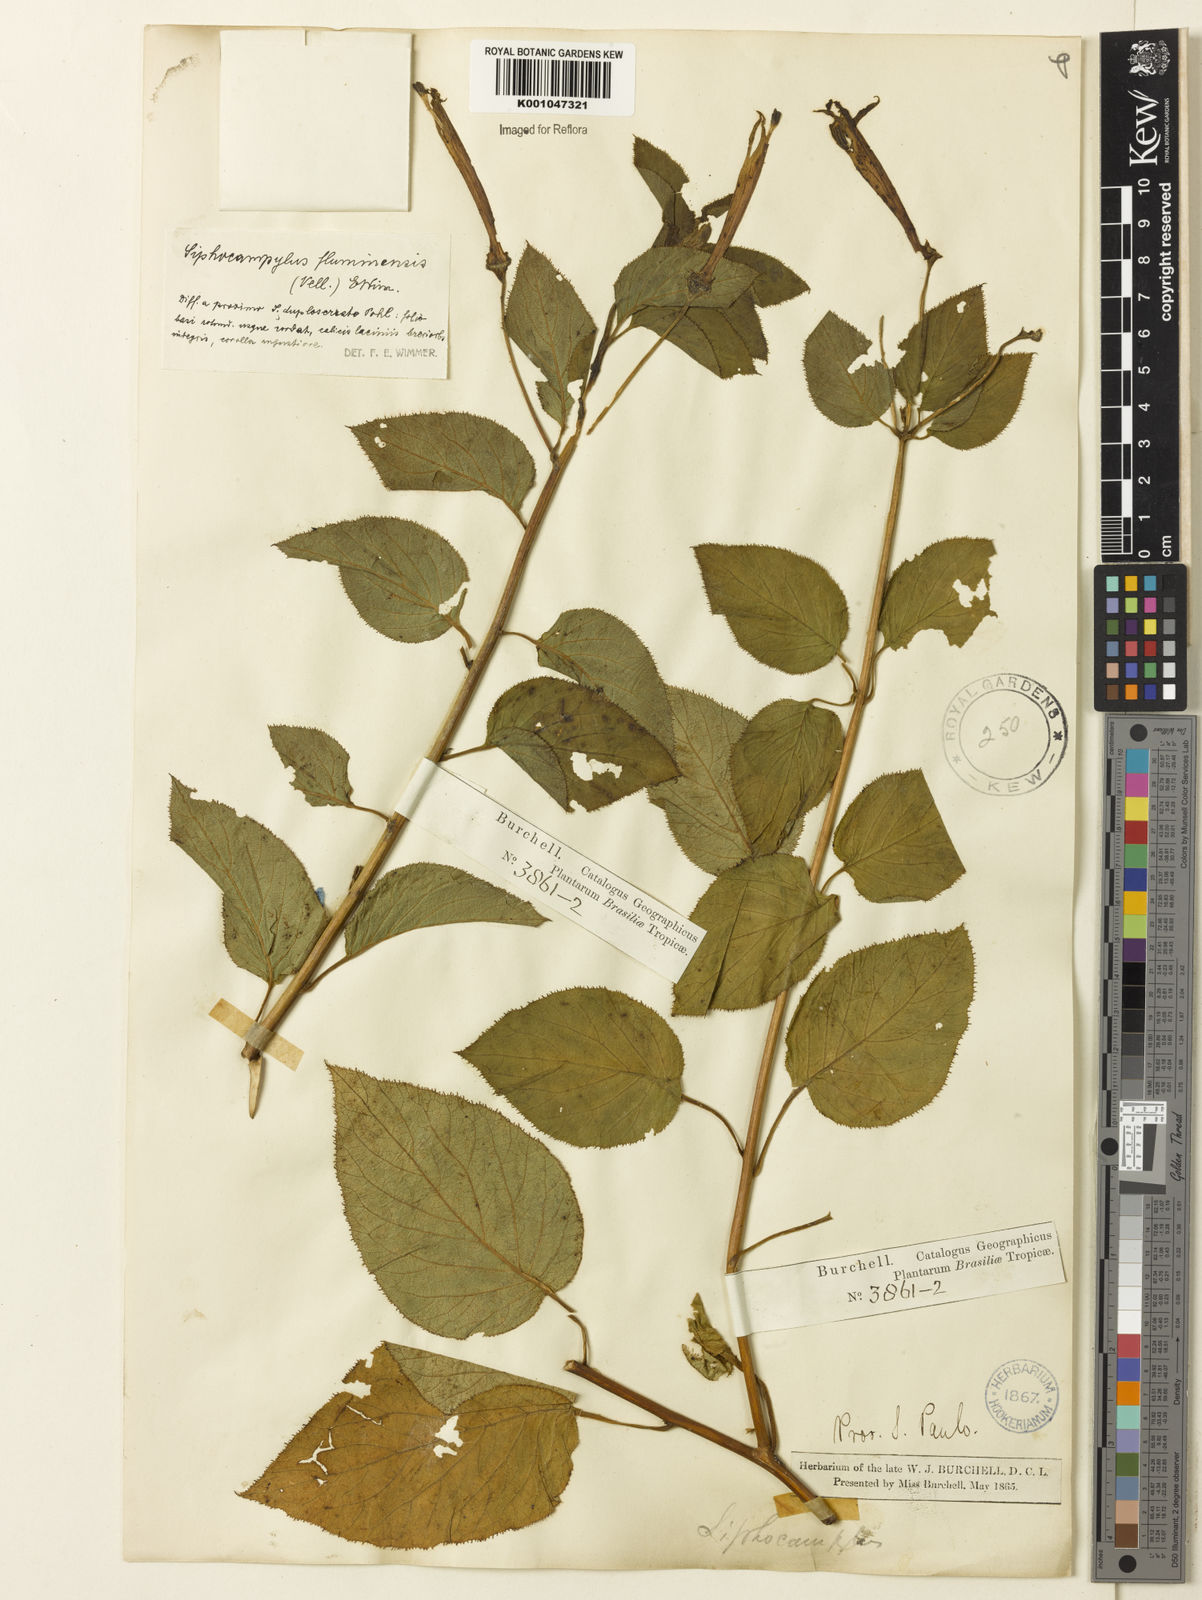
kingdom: Plantae
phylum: Tracheophyta
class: Magnoliopsida
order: Asterales
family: Campanulaceae
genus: Siphocampylus
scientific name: Siphocampylus fluminensis
